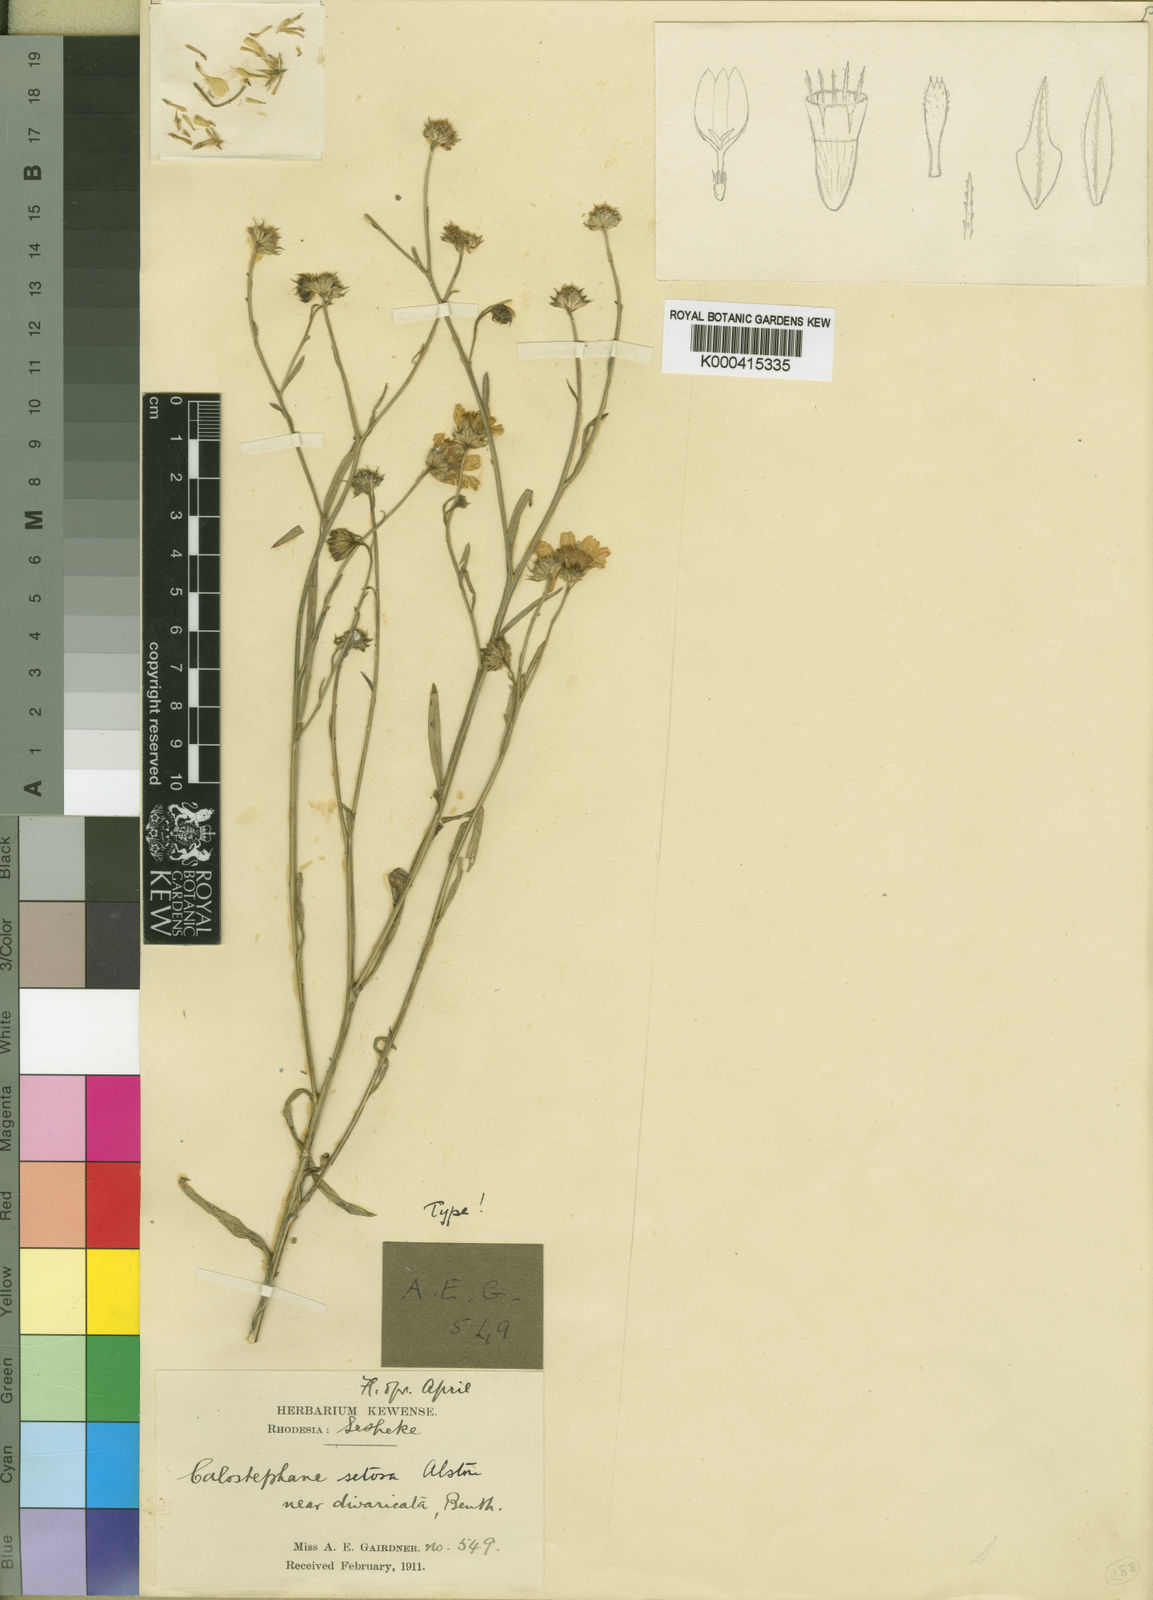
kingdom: Plantae
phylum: Tracheophyta
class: Magnoliopsida
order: Asterales
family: Asteraceae
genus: Calostephane
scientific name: Calostephane divaricata
